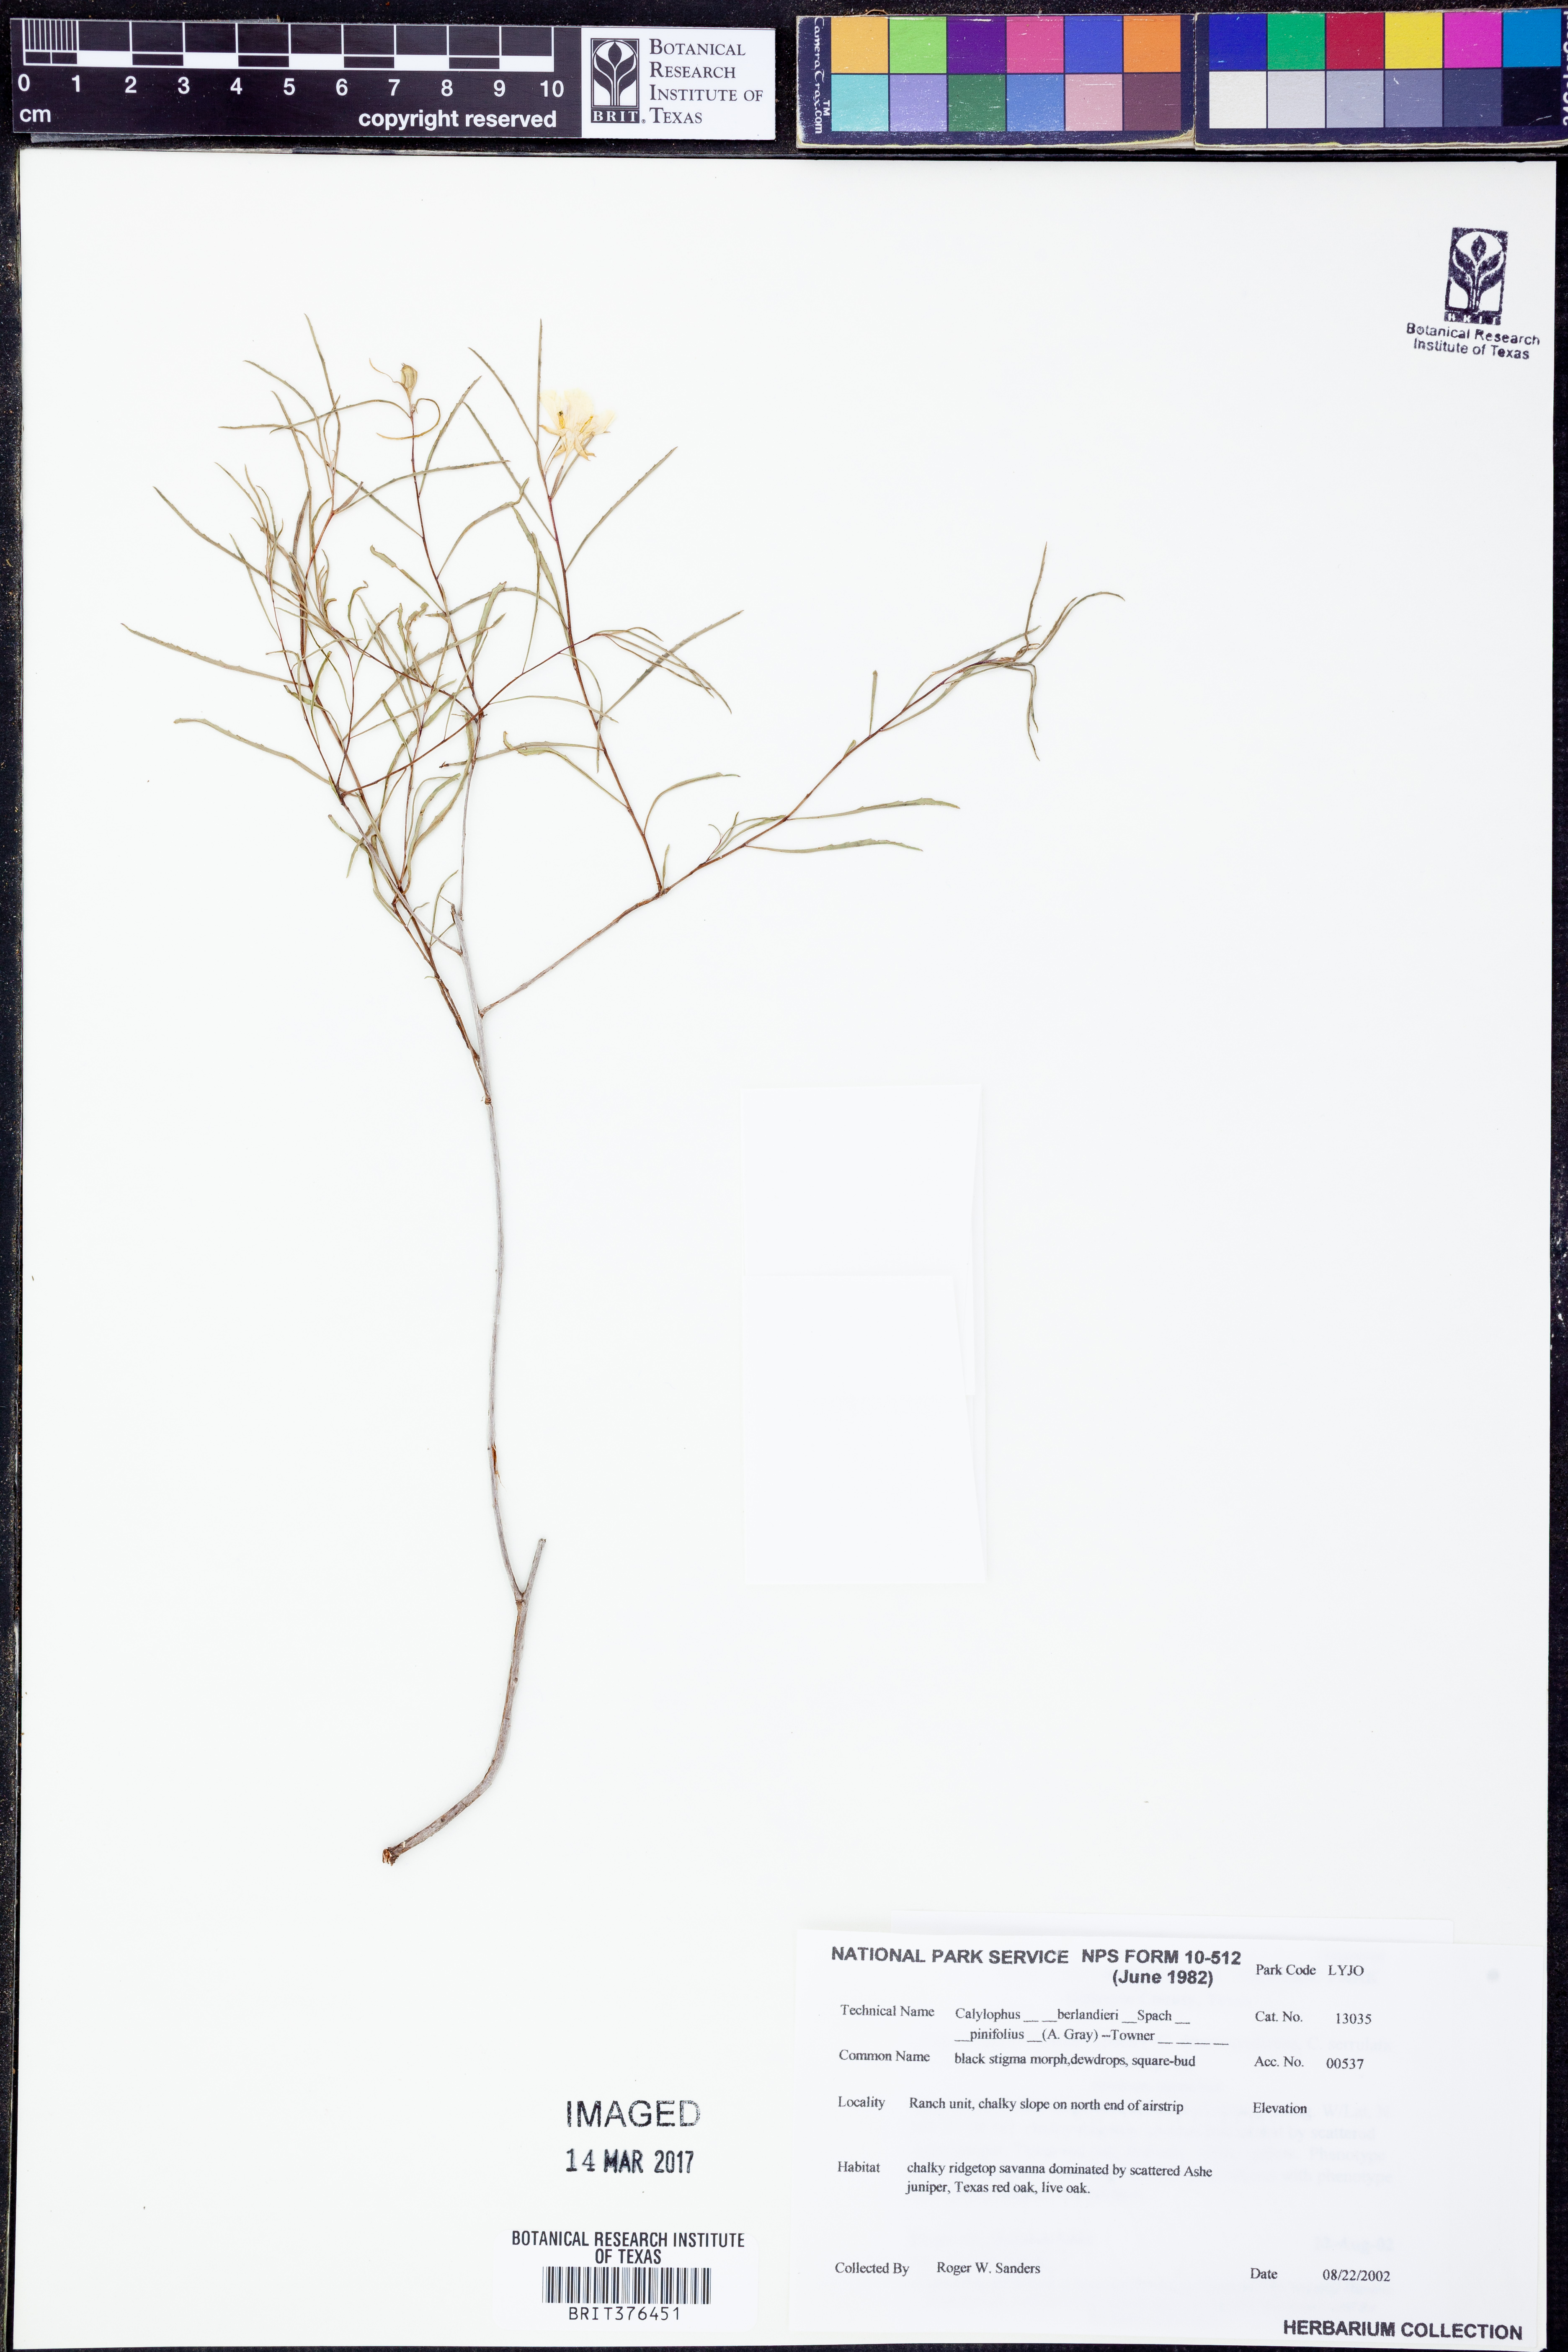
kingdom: Plantae
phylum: Tracheophyta
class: Magnoliopsida
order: Myrtales
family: Onagraceae
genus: Oenothera
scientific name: Oenothera capillifolia
